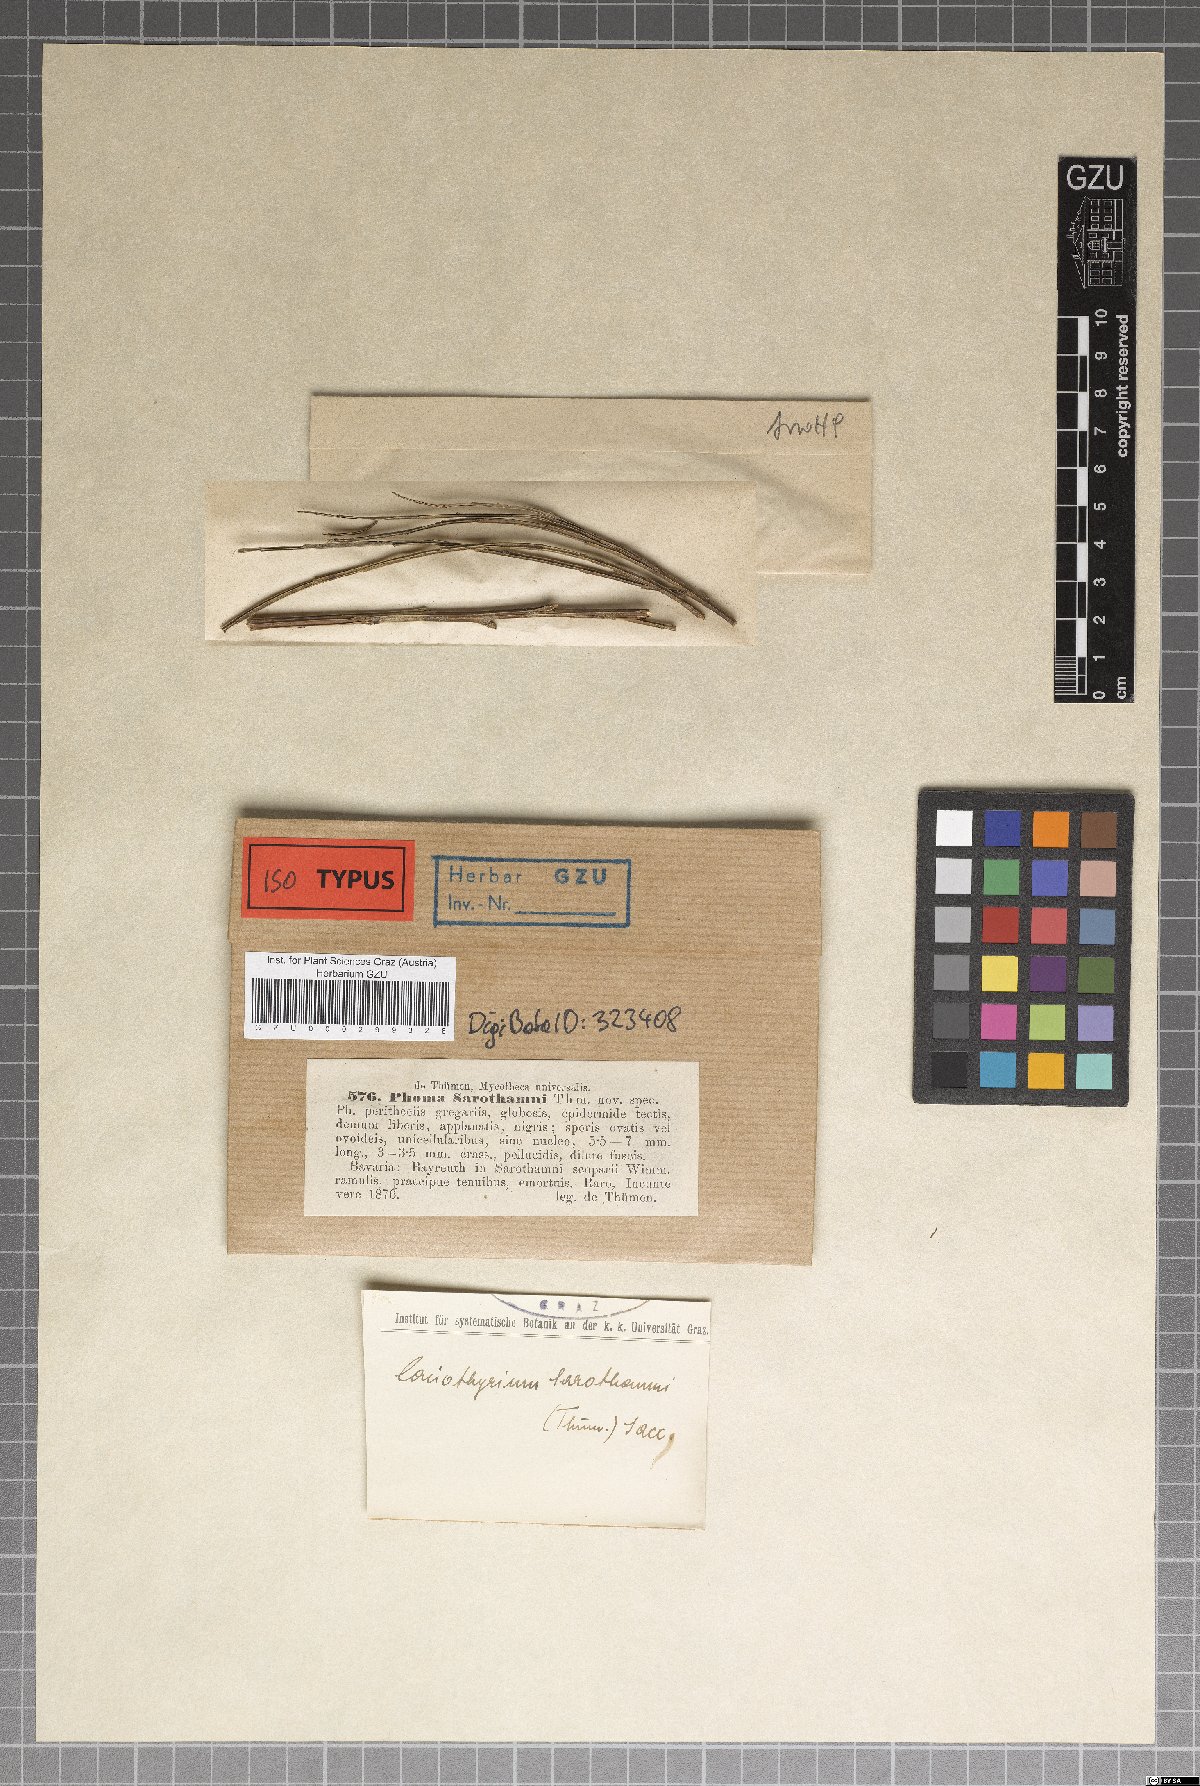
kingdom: Fungi
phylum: Ascomycota
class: Dothideomycetes
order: Pleosporales
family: Coniothyriaceae
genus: Coniothyrium
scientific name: Coniothyrium sarothamni
